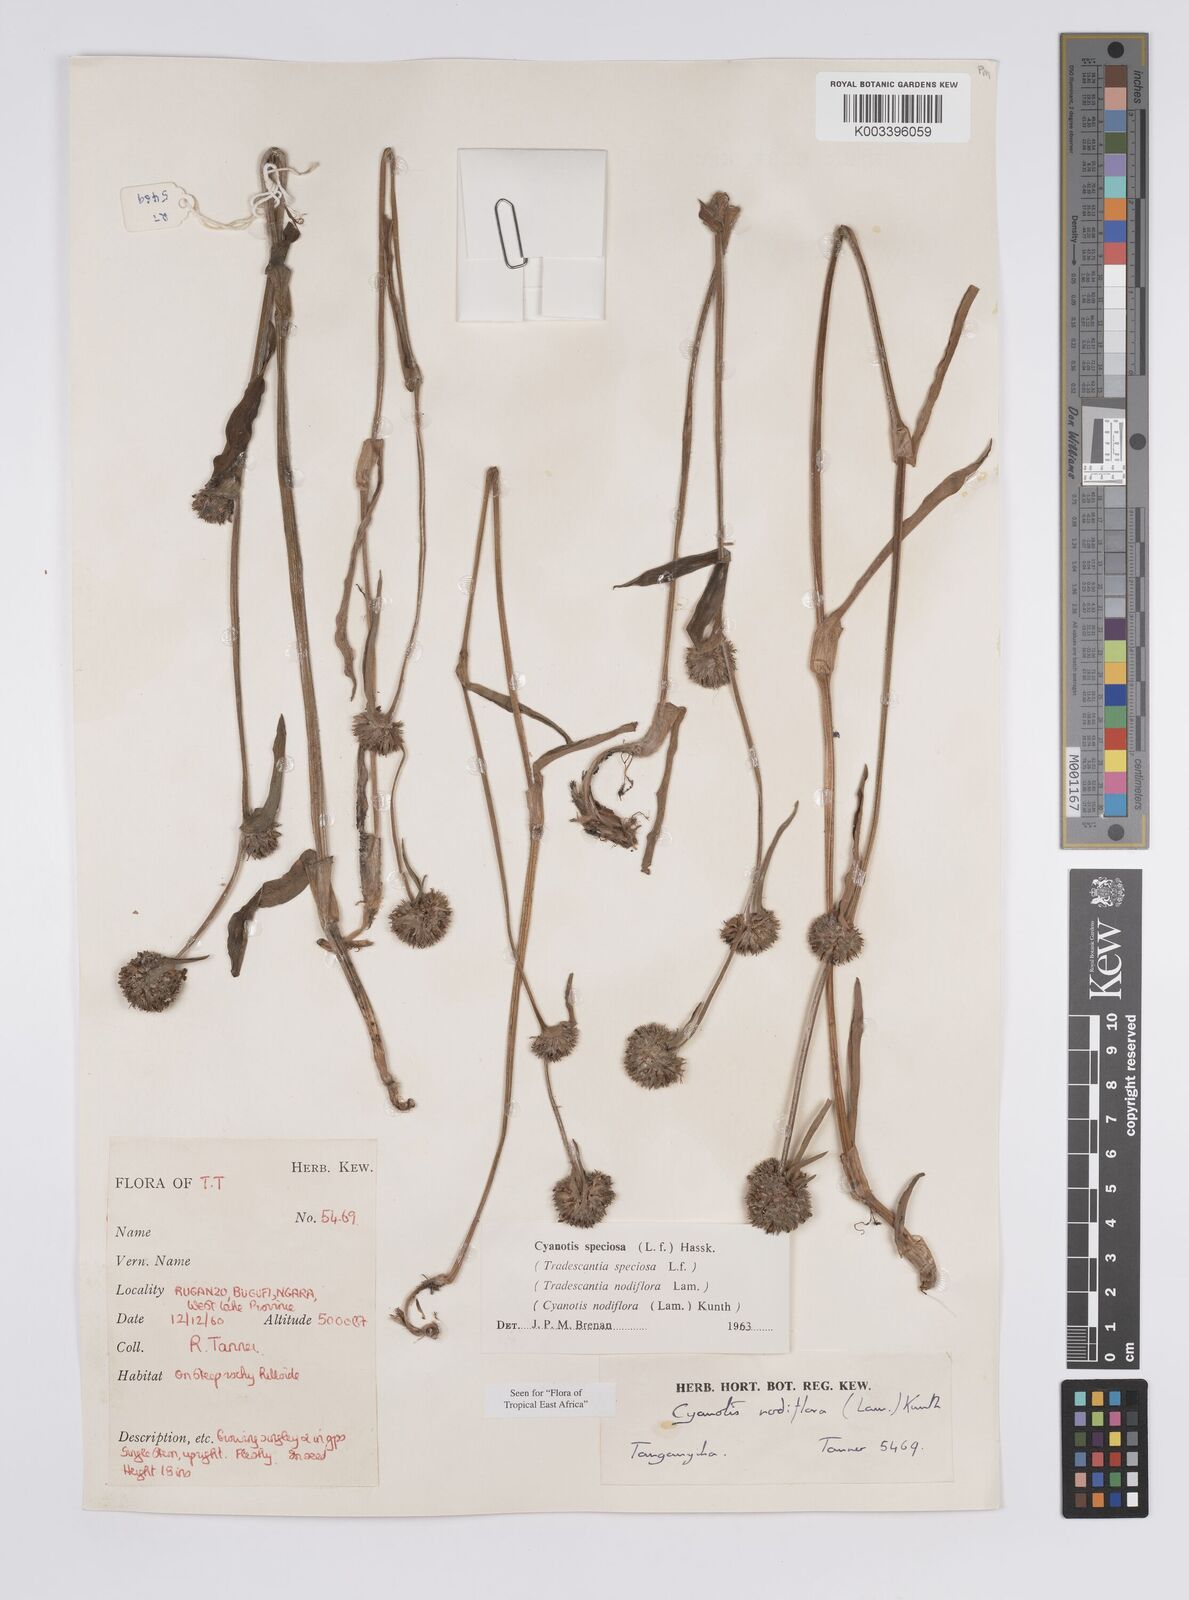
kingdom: Plantae
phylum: Tracheophyta
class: Liliopsida
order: Commelinales
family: Commelinaceae
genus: Cyanotis
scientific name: Cyanotis speciosa
